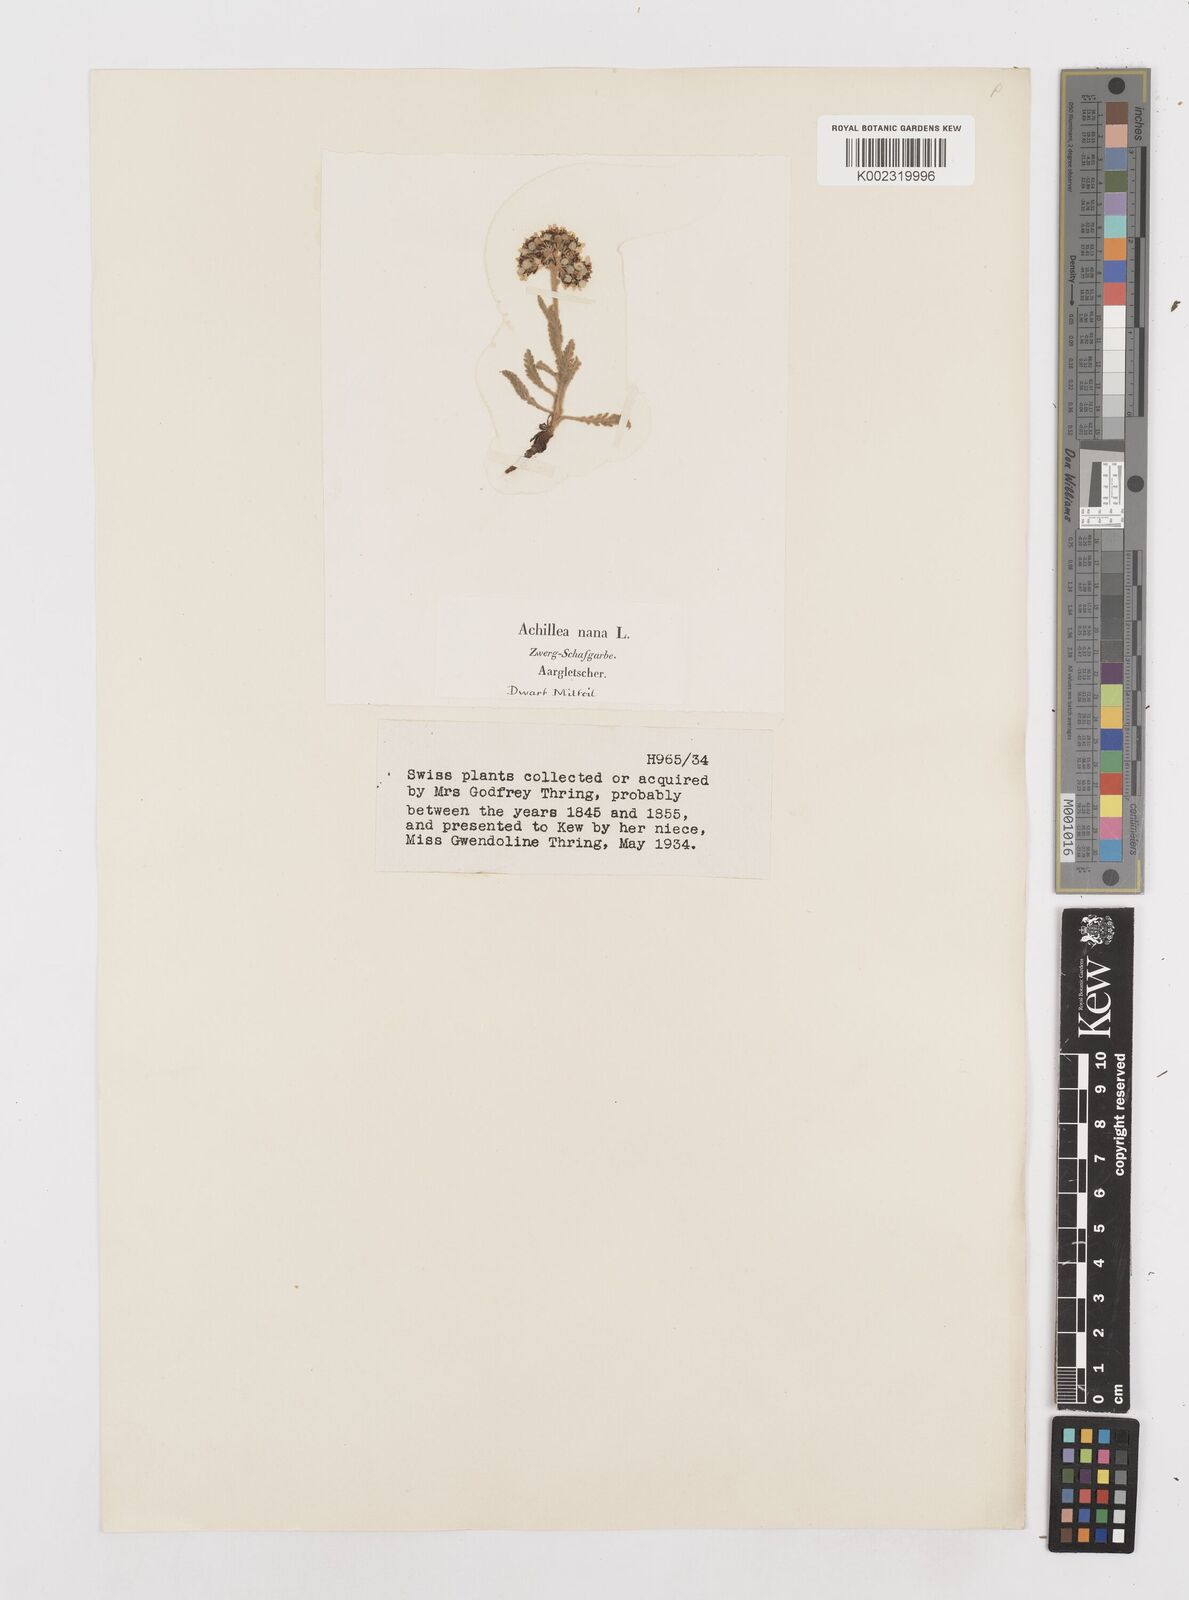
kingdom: Plantae
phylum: Tracheophyta
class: Magnoliopsida
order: Asterales
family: Asteraceae
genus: Achillea
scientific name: Achillea nana
